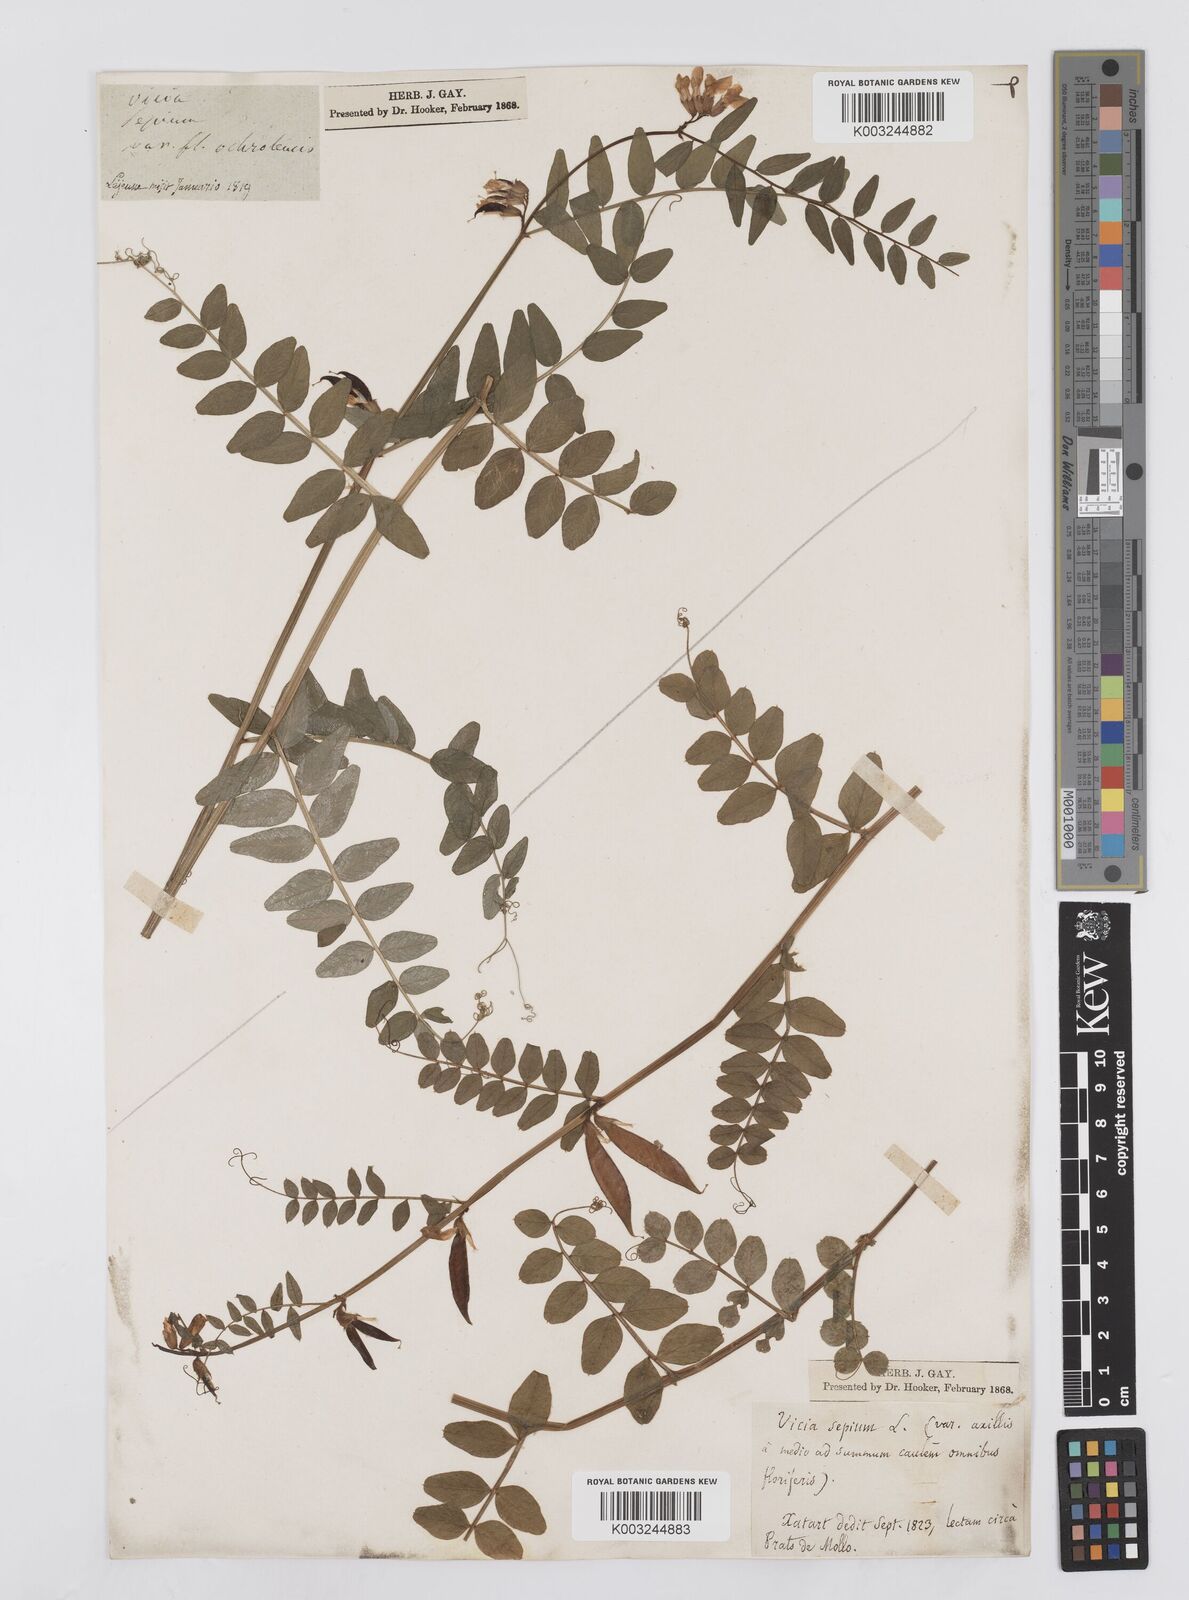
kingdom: Plantae
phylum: Tracheophyta
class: Magnoliopsida
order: Fabales
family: Fabaceae
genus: Vicia
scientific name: Vicia sepium
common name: Bush vetch
